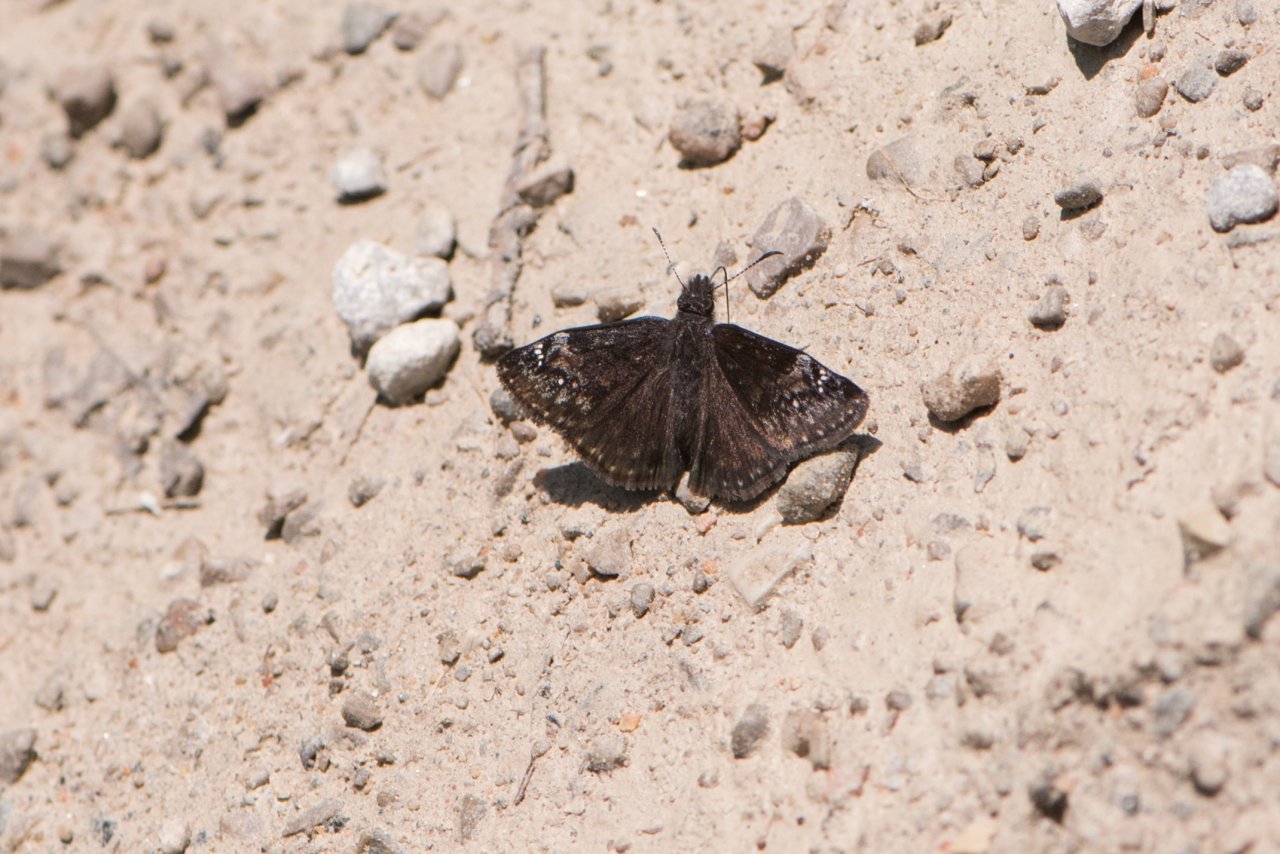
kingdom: Animalia
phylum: Arthropoda
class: Insecta
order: Lepidoptera
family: Hesperiidae
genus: Gesta
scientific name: Gesta
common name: Columbine Duskywing
